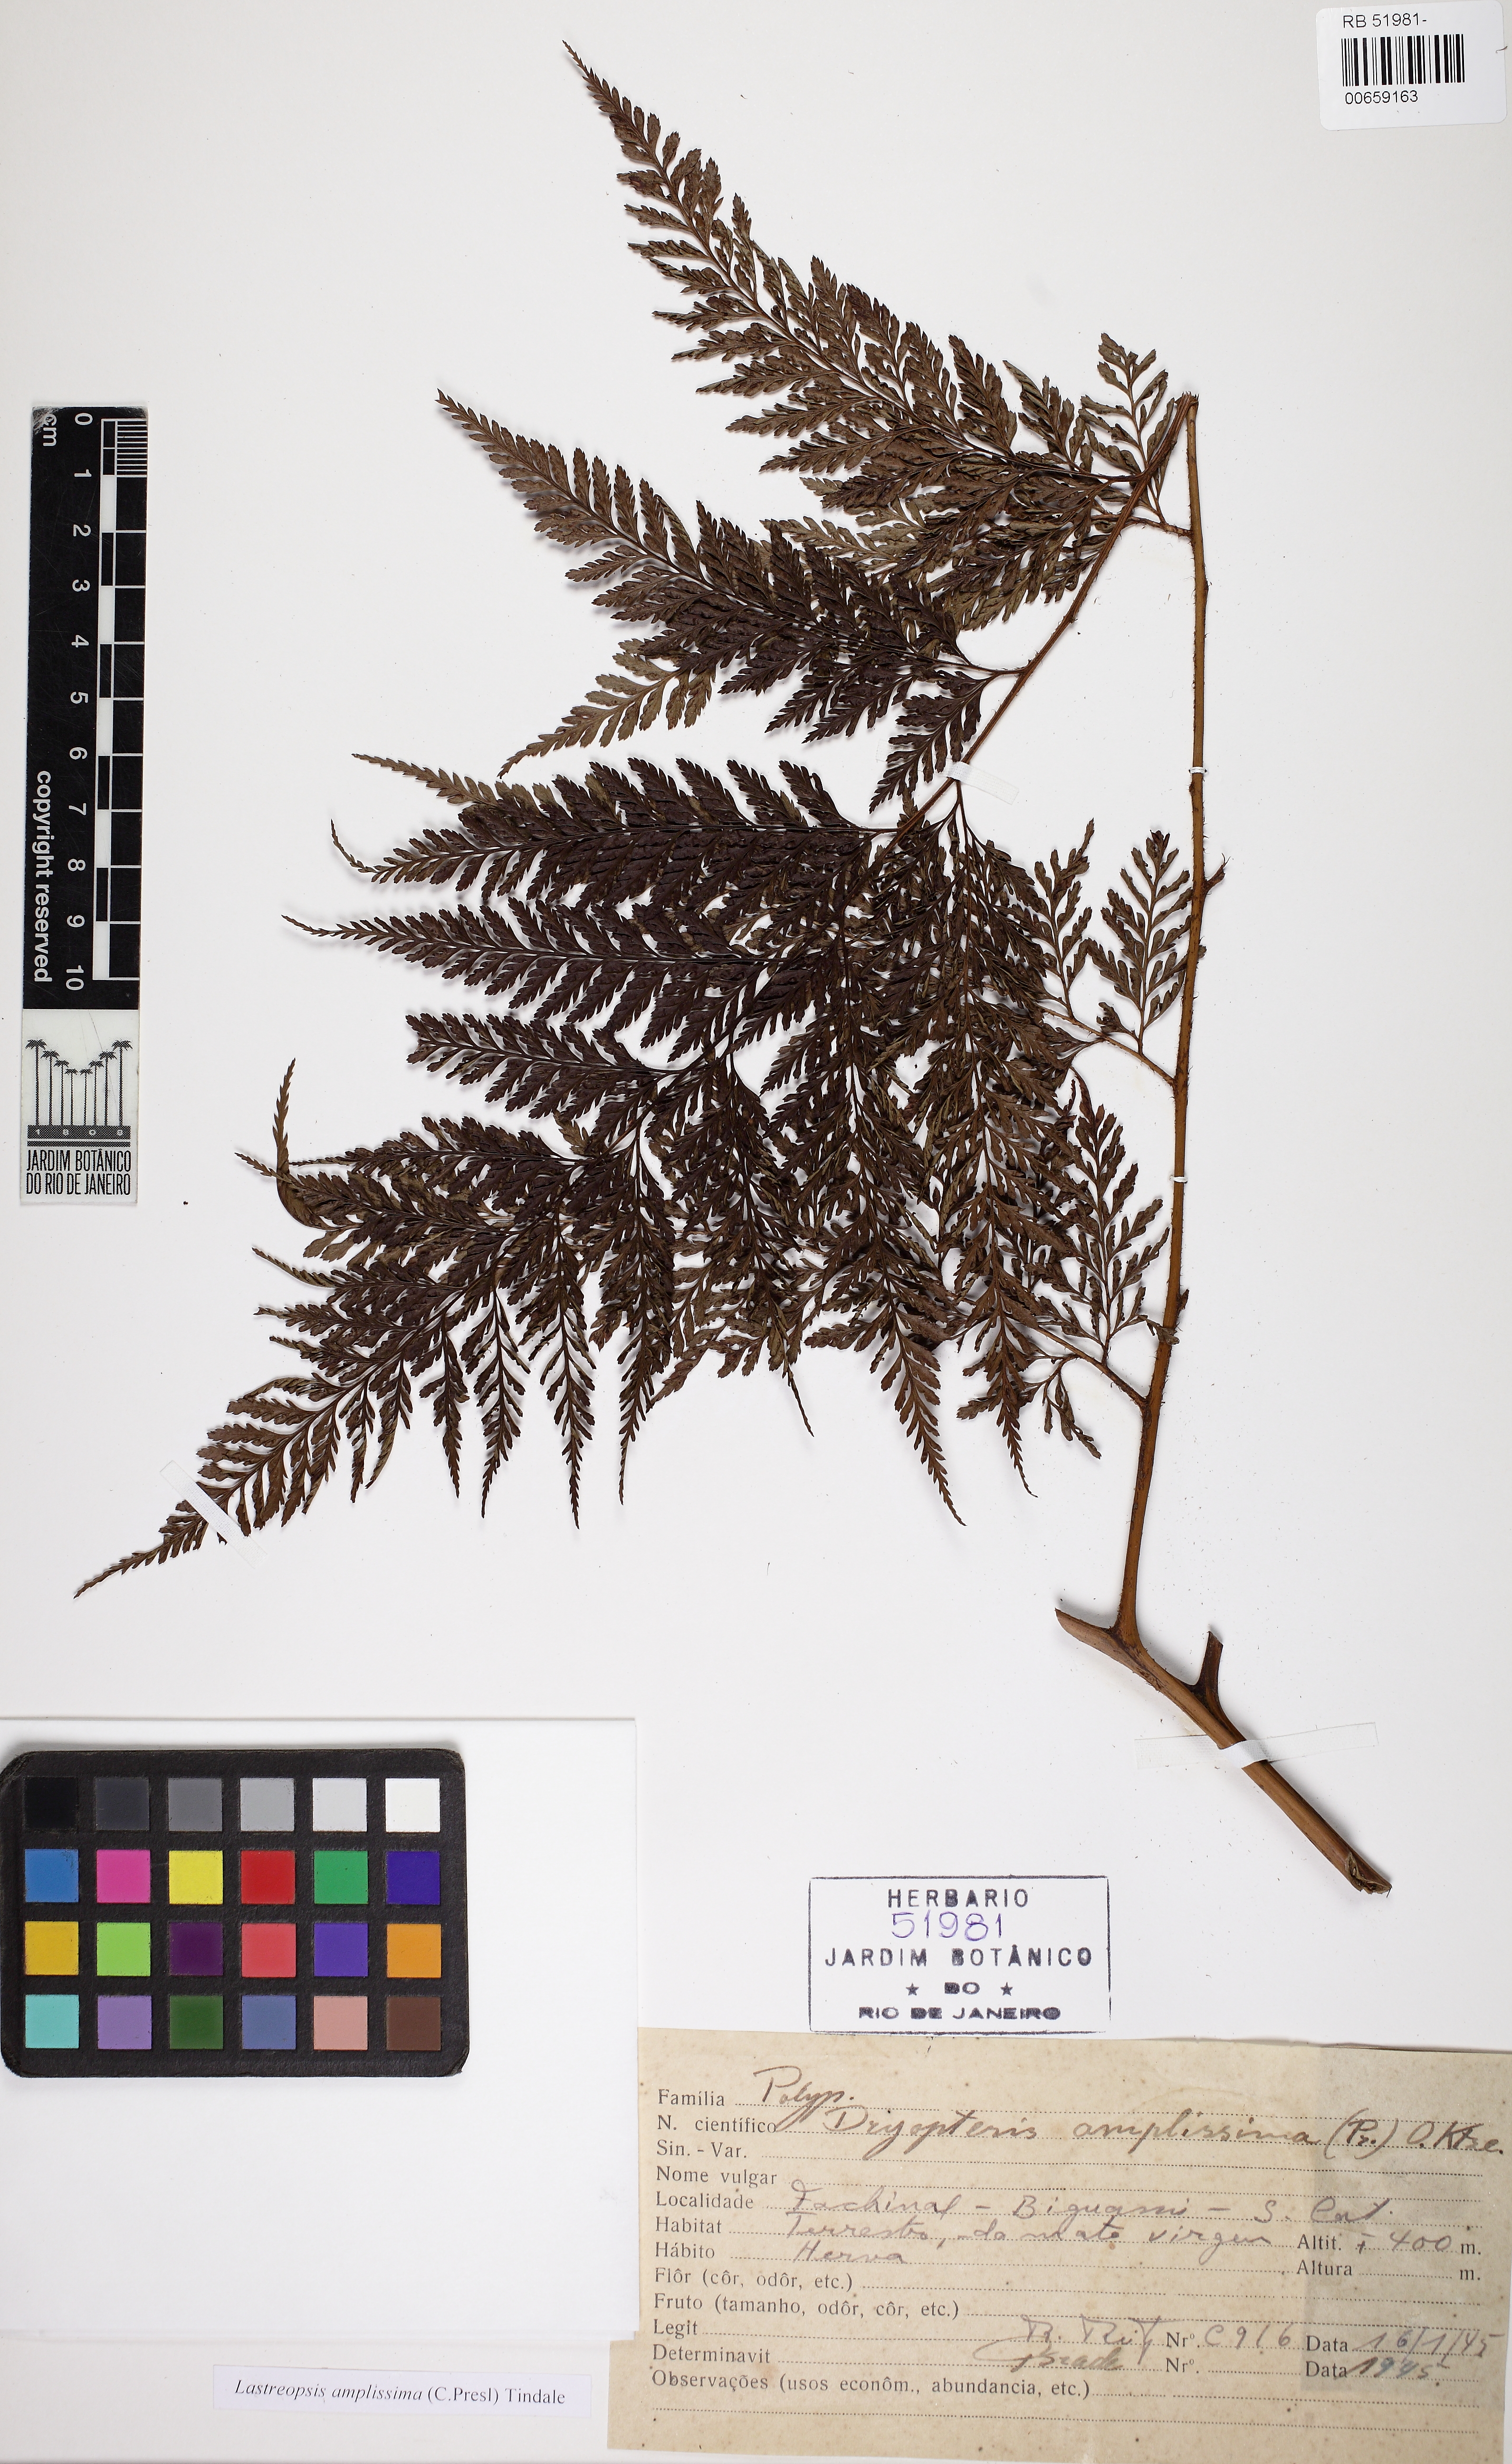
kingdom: Plantae
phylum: Tracheophyta
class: Polypodiopsida
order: Polypodiales
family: Dryopteridaceae
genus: Lastreopsis
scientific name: Lastreopsis amplissima
